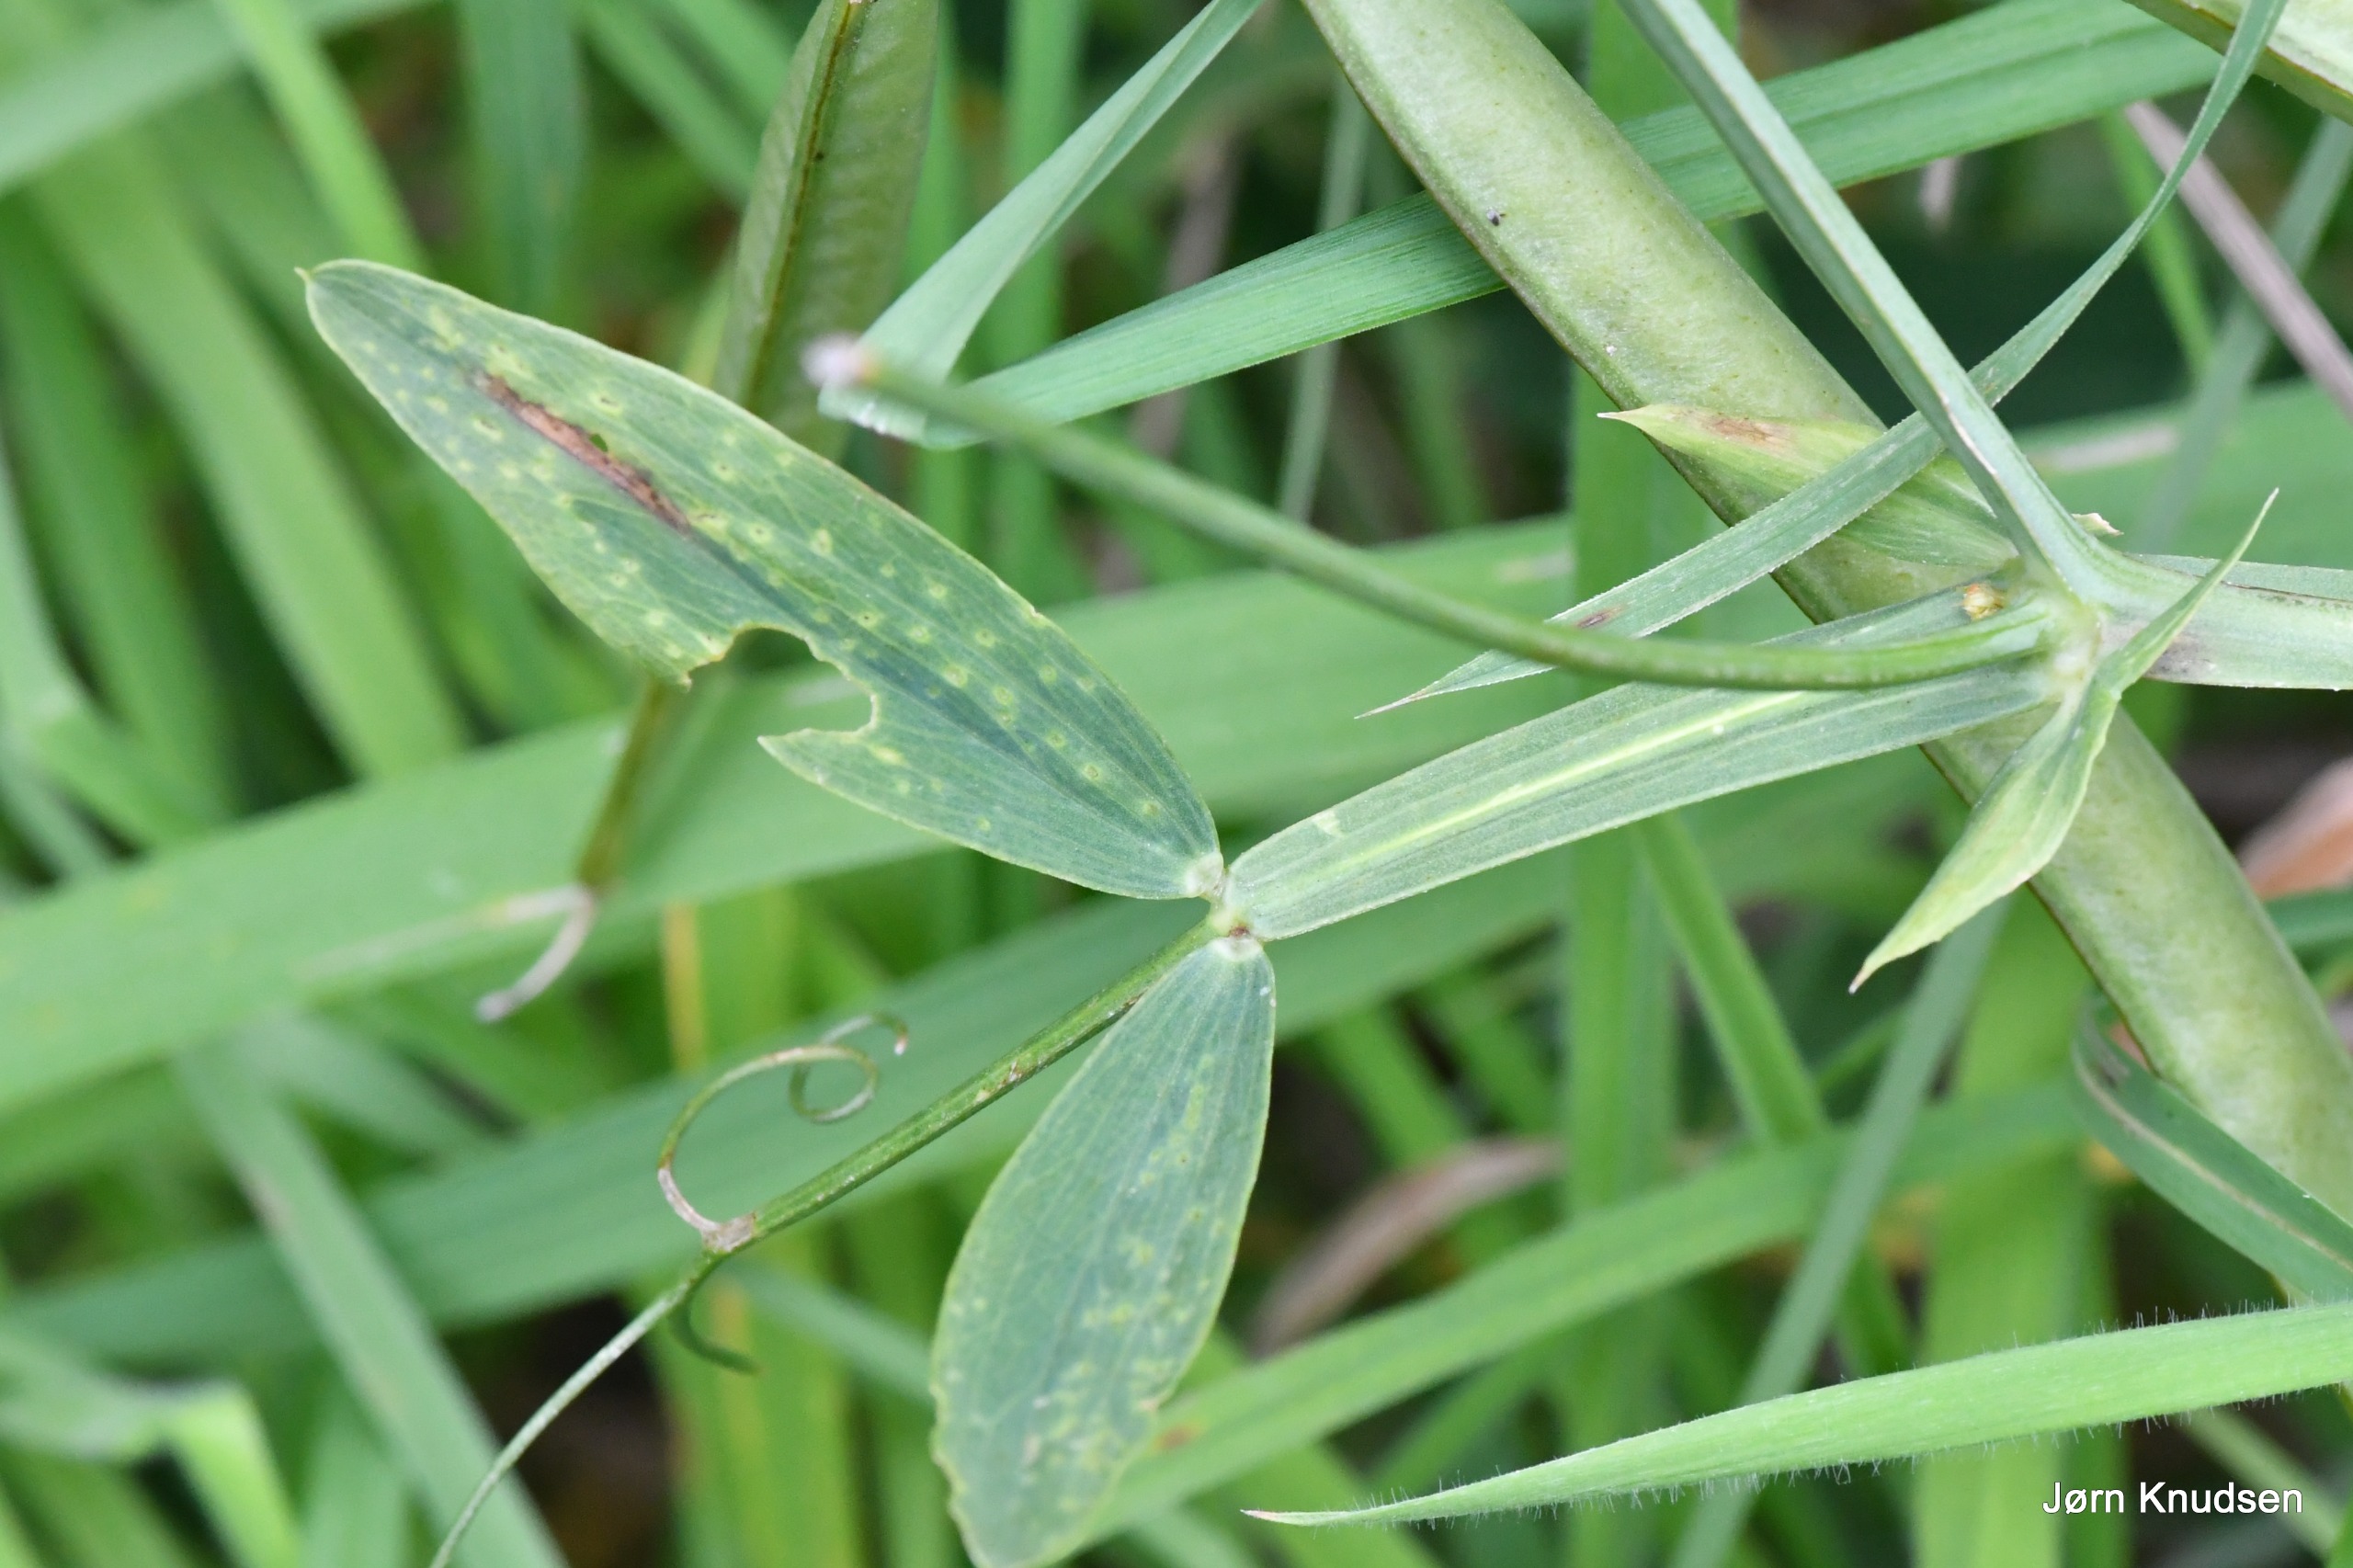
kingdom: Plantae
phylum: Tracheophyta
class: Magnoliopsida
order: Fabales
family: Fabaceae
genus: Lathyrus
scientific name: Lathyrus latifolius
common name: Flerårig ærteblomst
